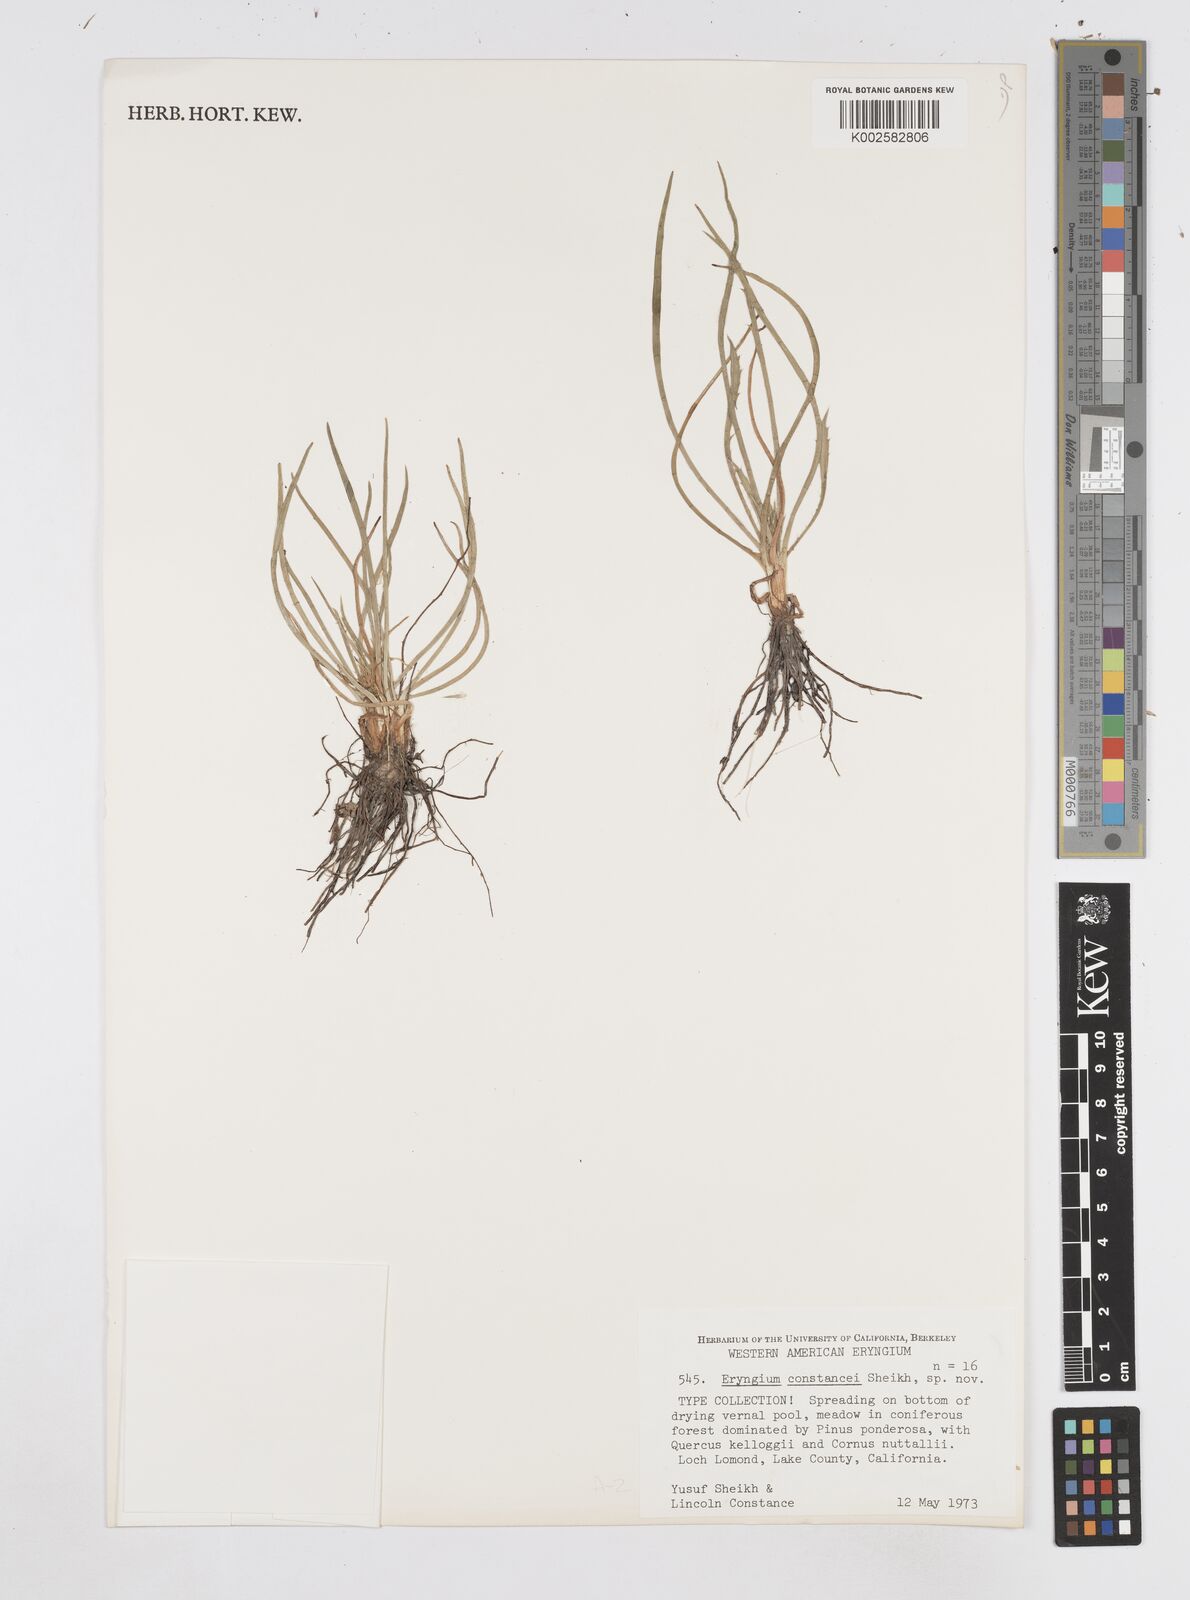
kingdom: Plantae
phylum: Tracheophyta
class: Magnoliopsida
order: Apiales
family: Apiaceae
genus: Eryngium
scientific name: Eryngium constancei
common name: Loch lomond coyote thistle
